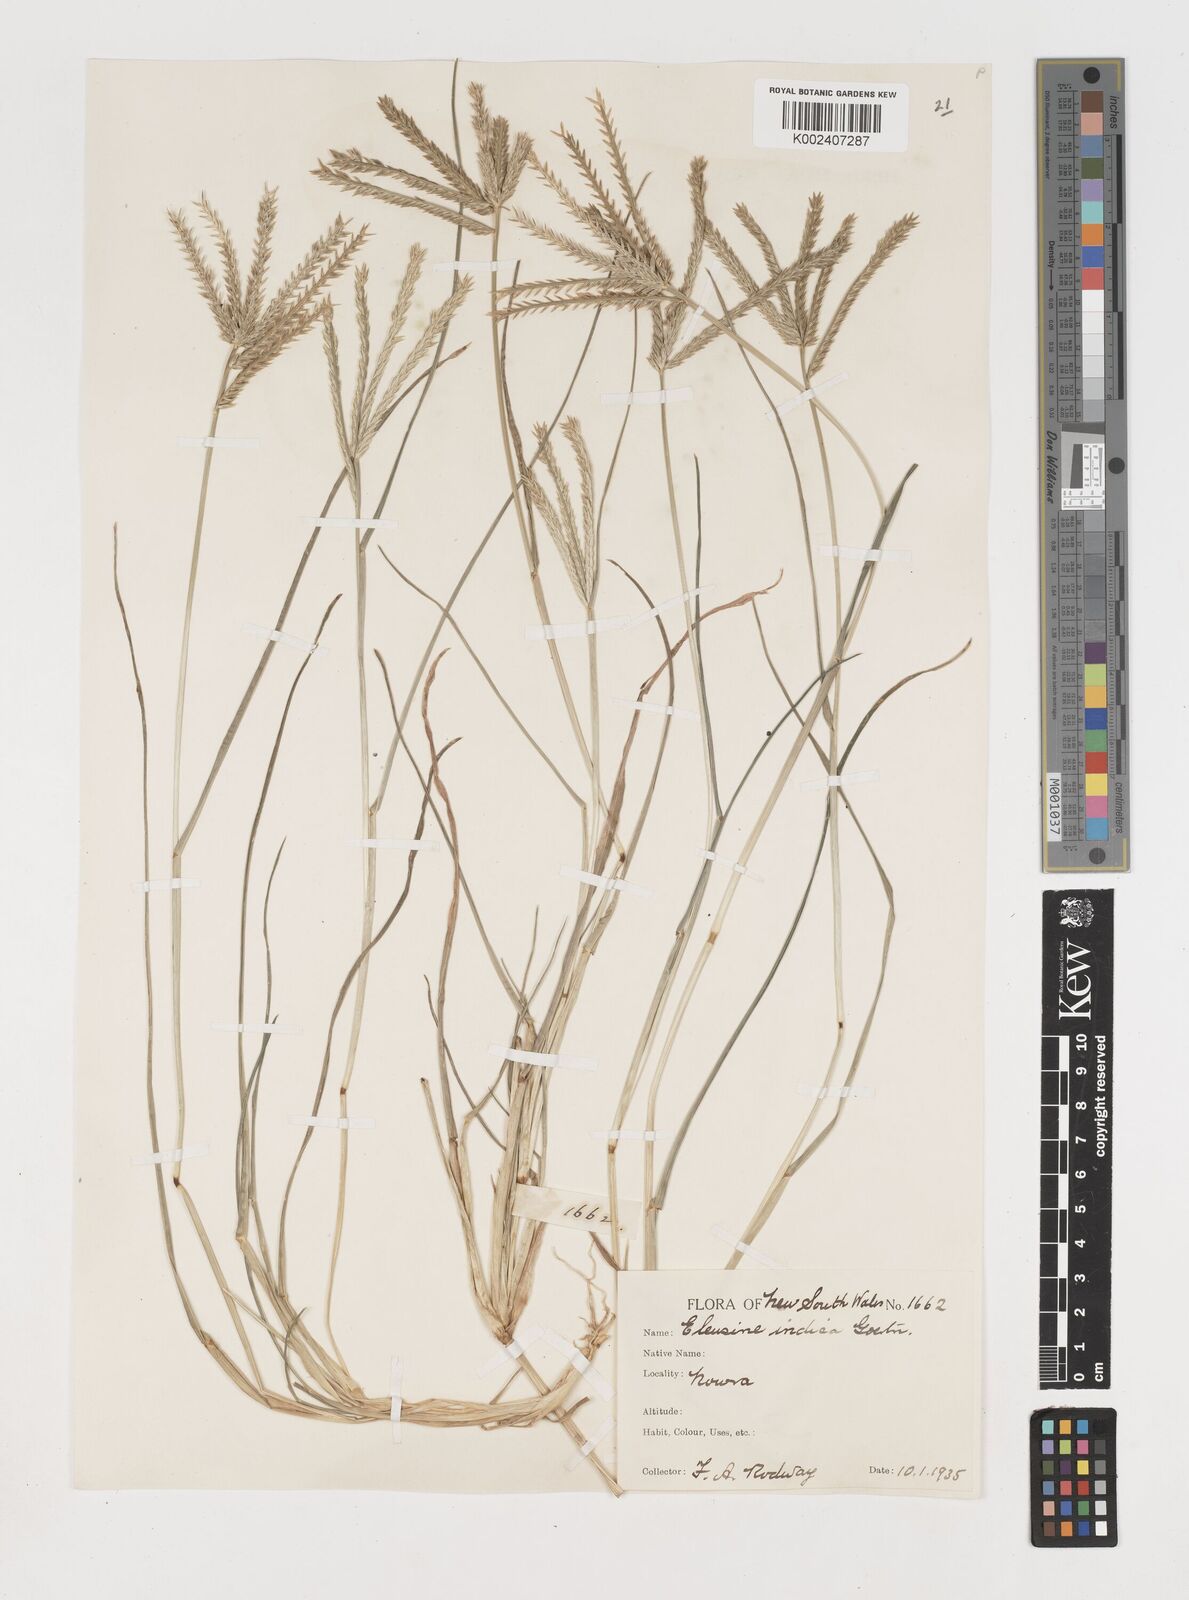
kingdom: Plantae
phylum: Tracheophyta
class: Liliopsida
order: Poales
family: Poaceae
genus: Eleusine
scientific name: Eleusine africana
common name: Wild african finger millet
